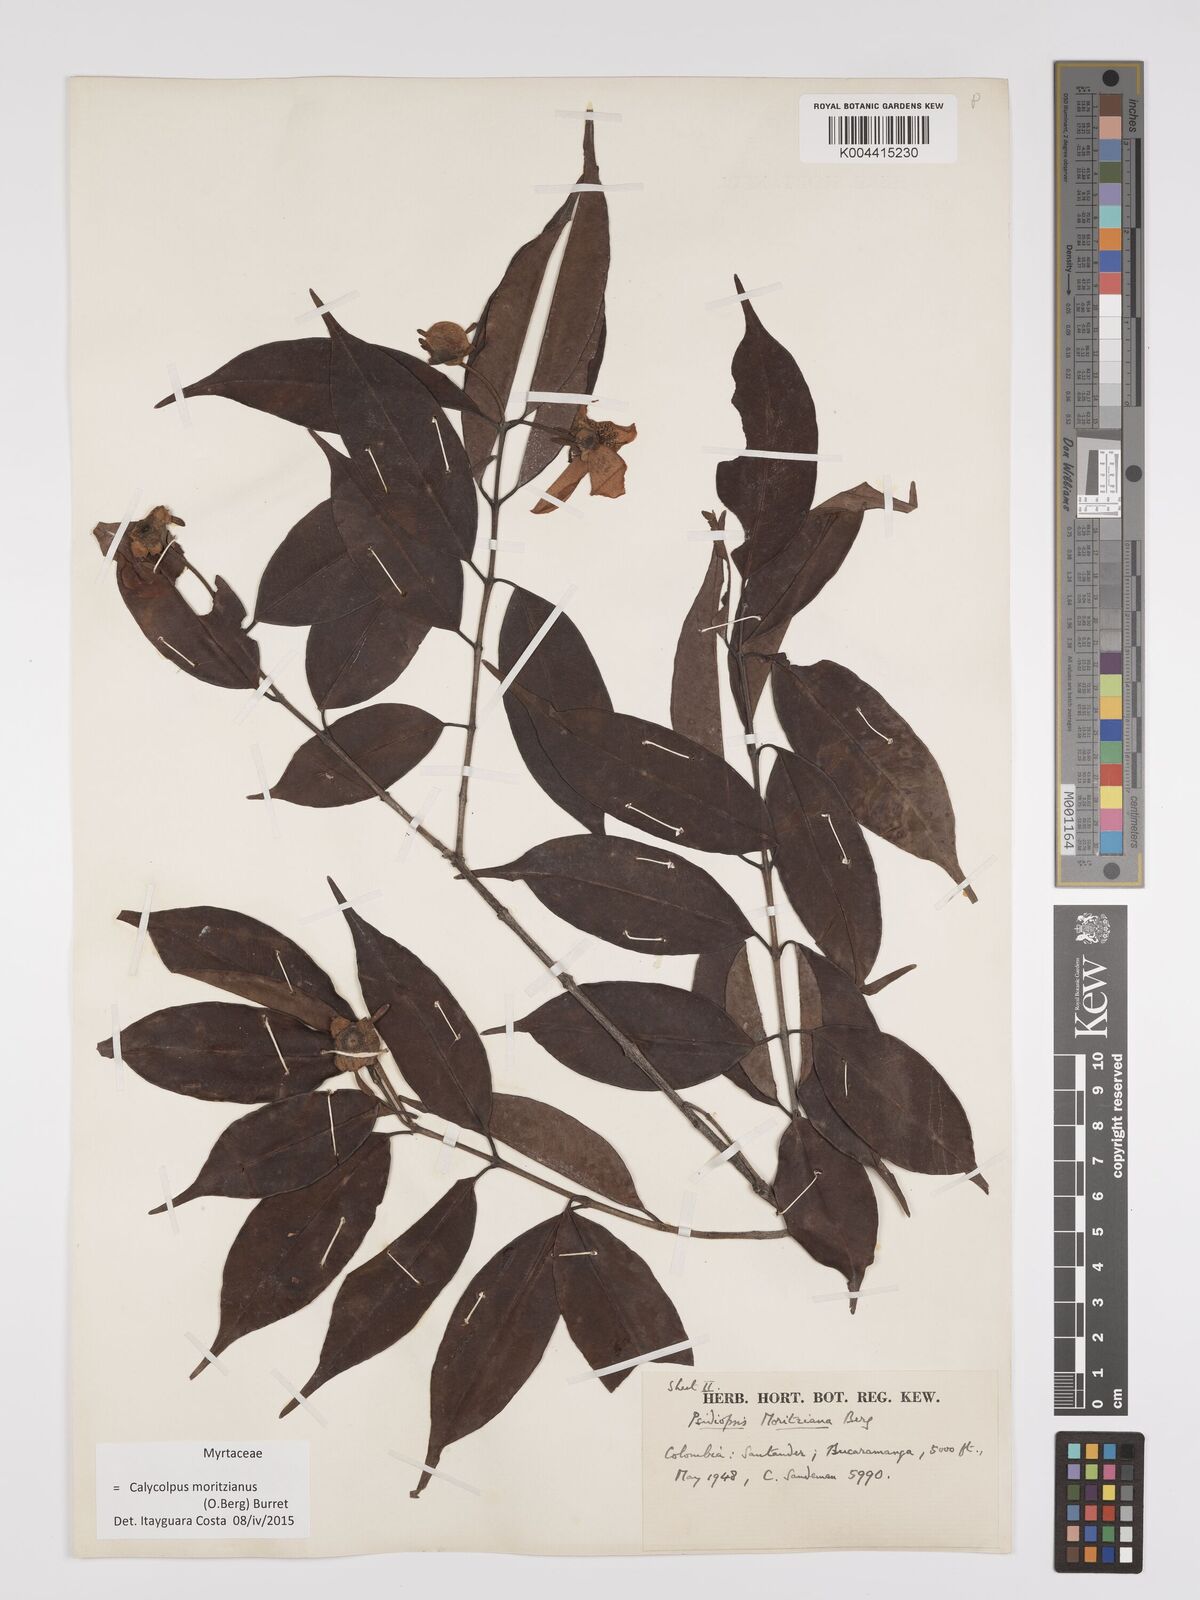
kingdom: Plantae
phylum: Tracheophyta
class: Magnoliopsida
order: Myrtales
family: Myrtaceae
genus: Calycolpus
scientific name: Calycolpus moritzianus
